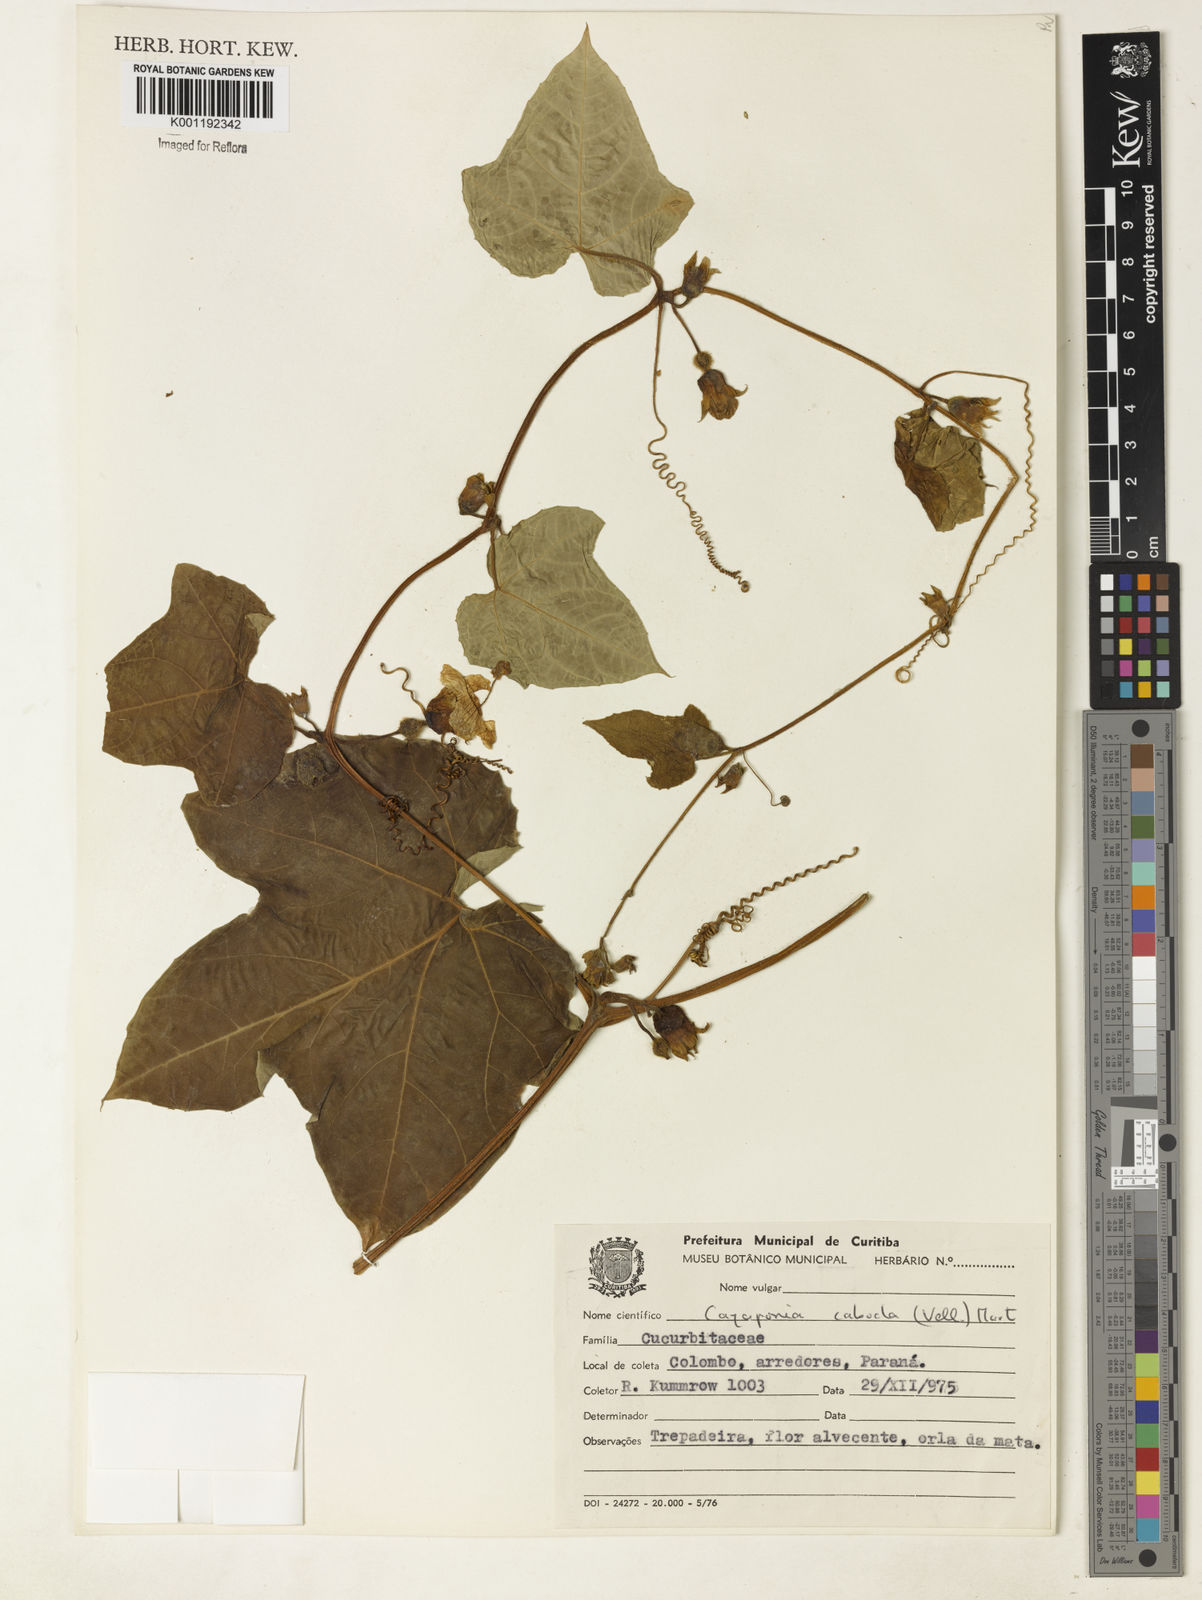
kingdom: Plantae
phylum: Tracheophyta
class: Magnoliopsida
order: Cucurbitales
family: Cucurbitaceae
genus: Cayaponia
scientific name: Cayaponia cabocla
